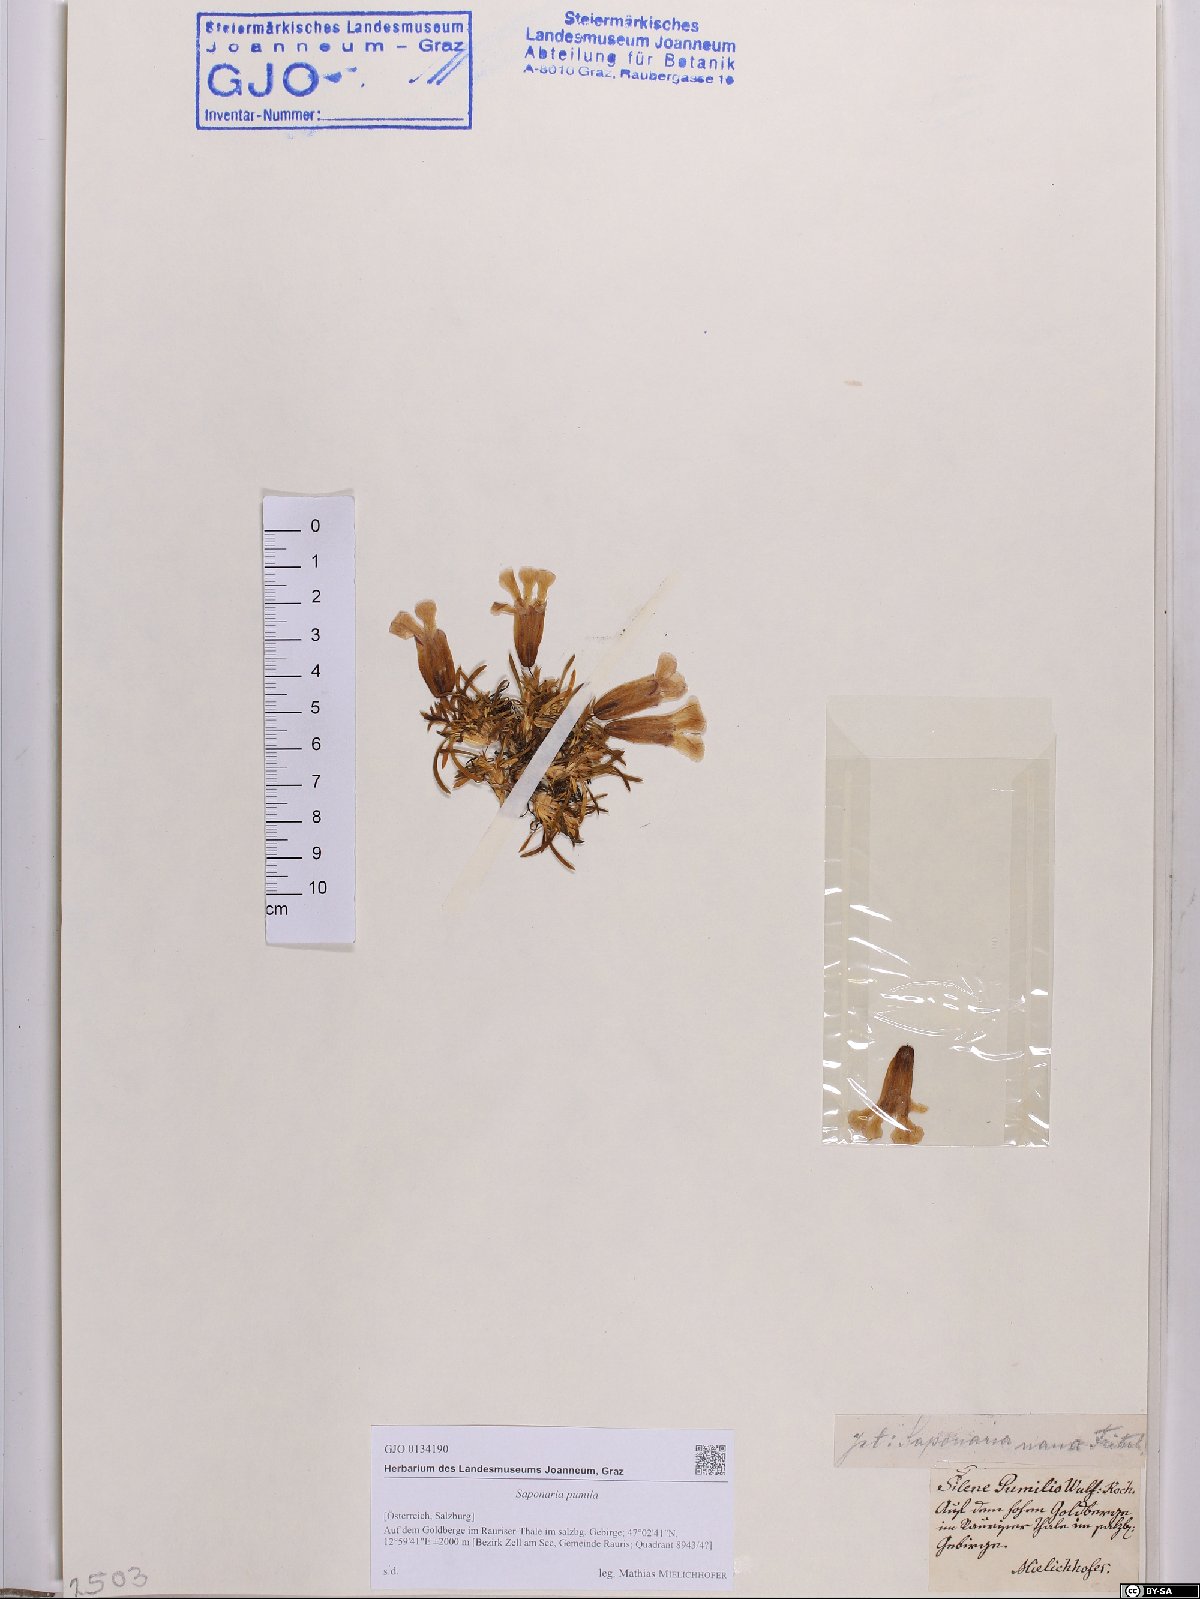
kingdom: Plantae
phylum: Tracheophyta
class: Magnoliopsida
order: Caryophyllales
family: Caryophyllaceae
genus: Saponaria
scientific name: Saponaria pumila
